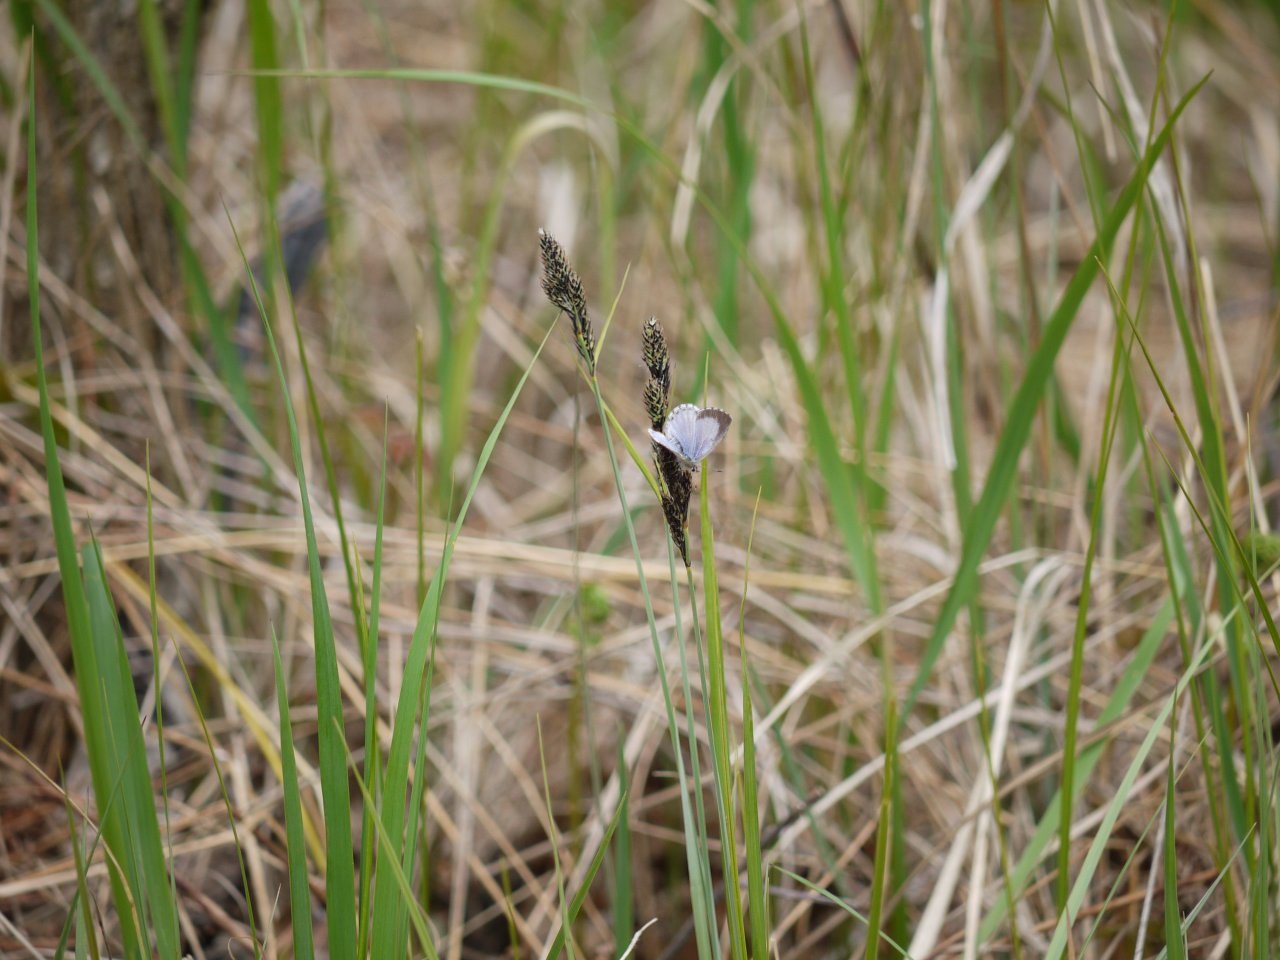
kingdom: Animalia
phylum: Arthropoda
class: Insecta
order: Lepidoptera
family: Lycaenidae
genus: Celastrina
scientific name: Celastrina lucia
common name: Northern Spring Azure
